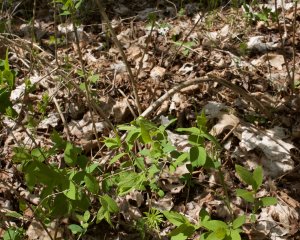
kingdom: Animalia
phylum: Arthropoda
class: Insecta
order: Lepidoptera
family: Lycaenidae
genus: Celastrina
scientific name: Celastrina
